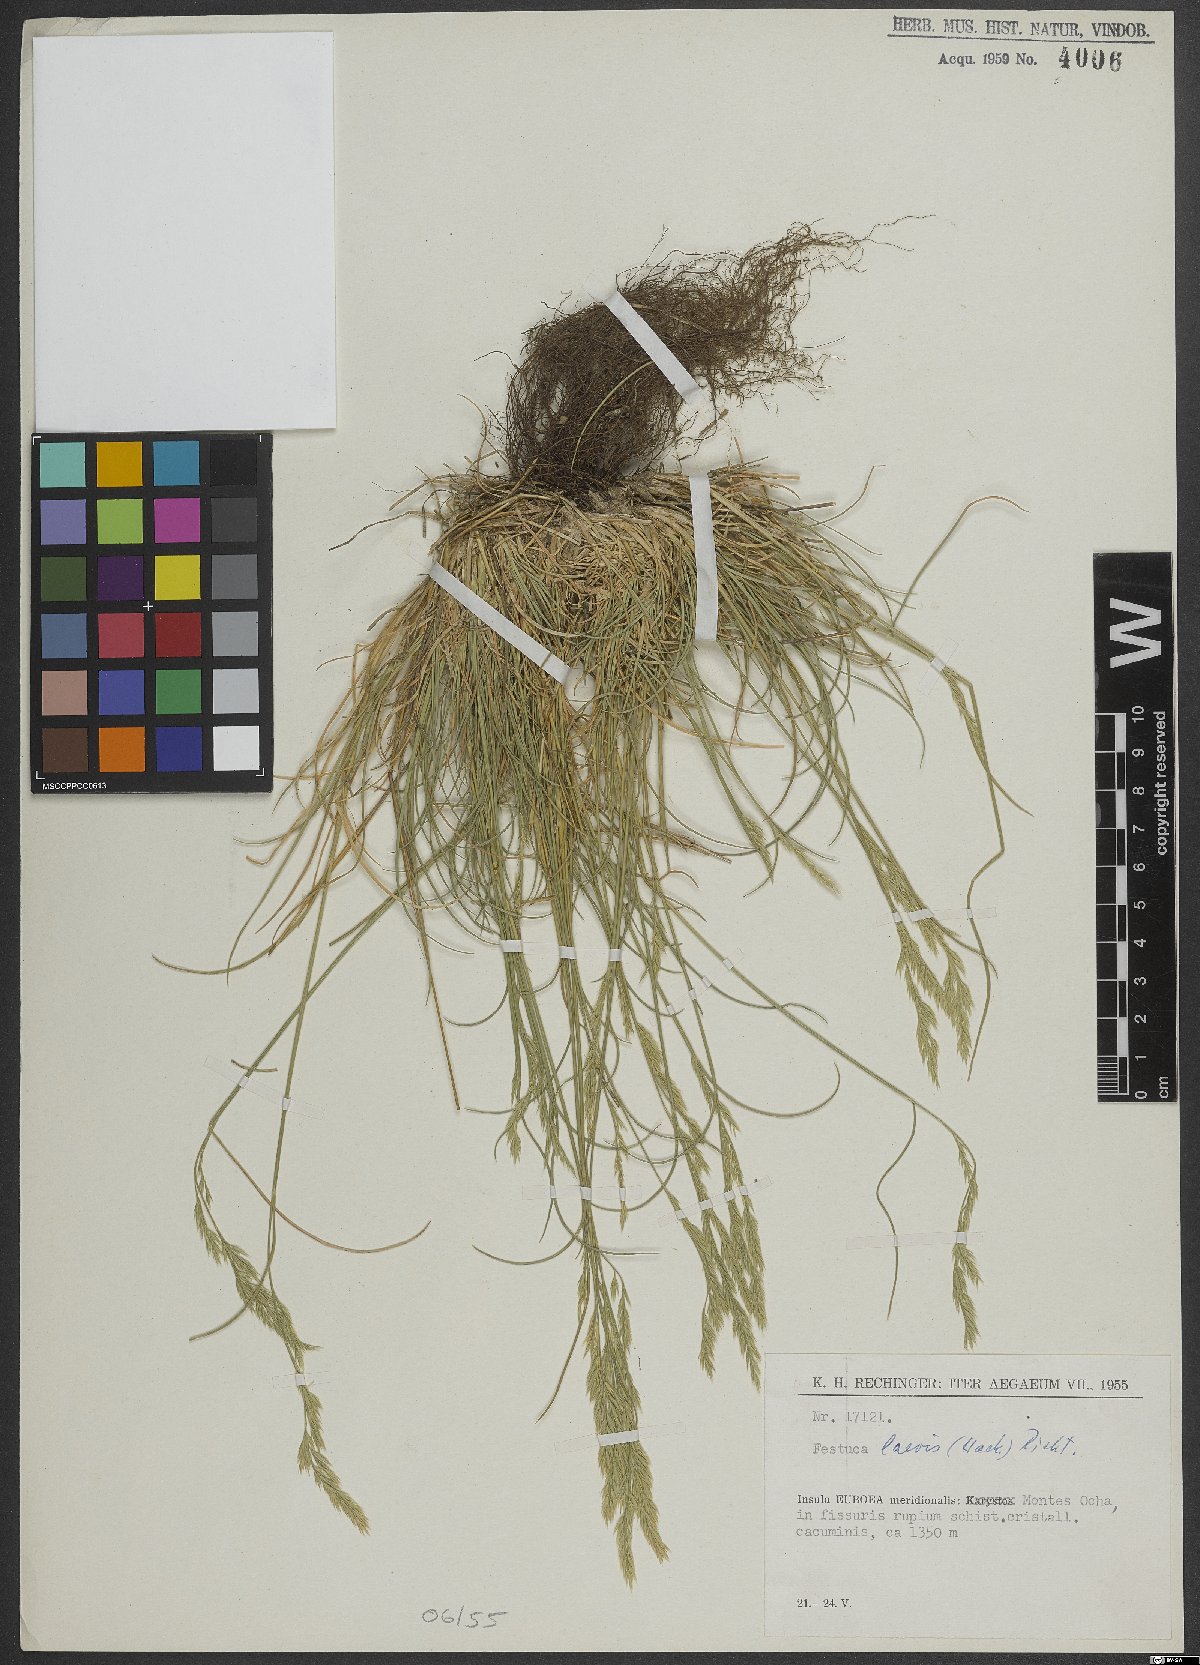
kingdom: Plantae
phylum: Tracheophyta
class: Liliopsida
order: Poales
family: Poaceae
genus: Festuca
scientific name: Festuca circummediterranea
